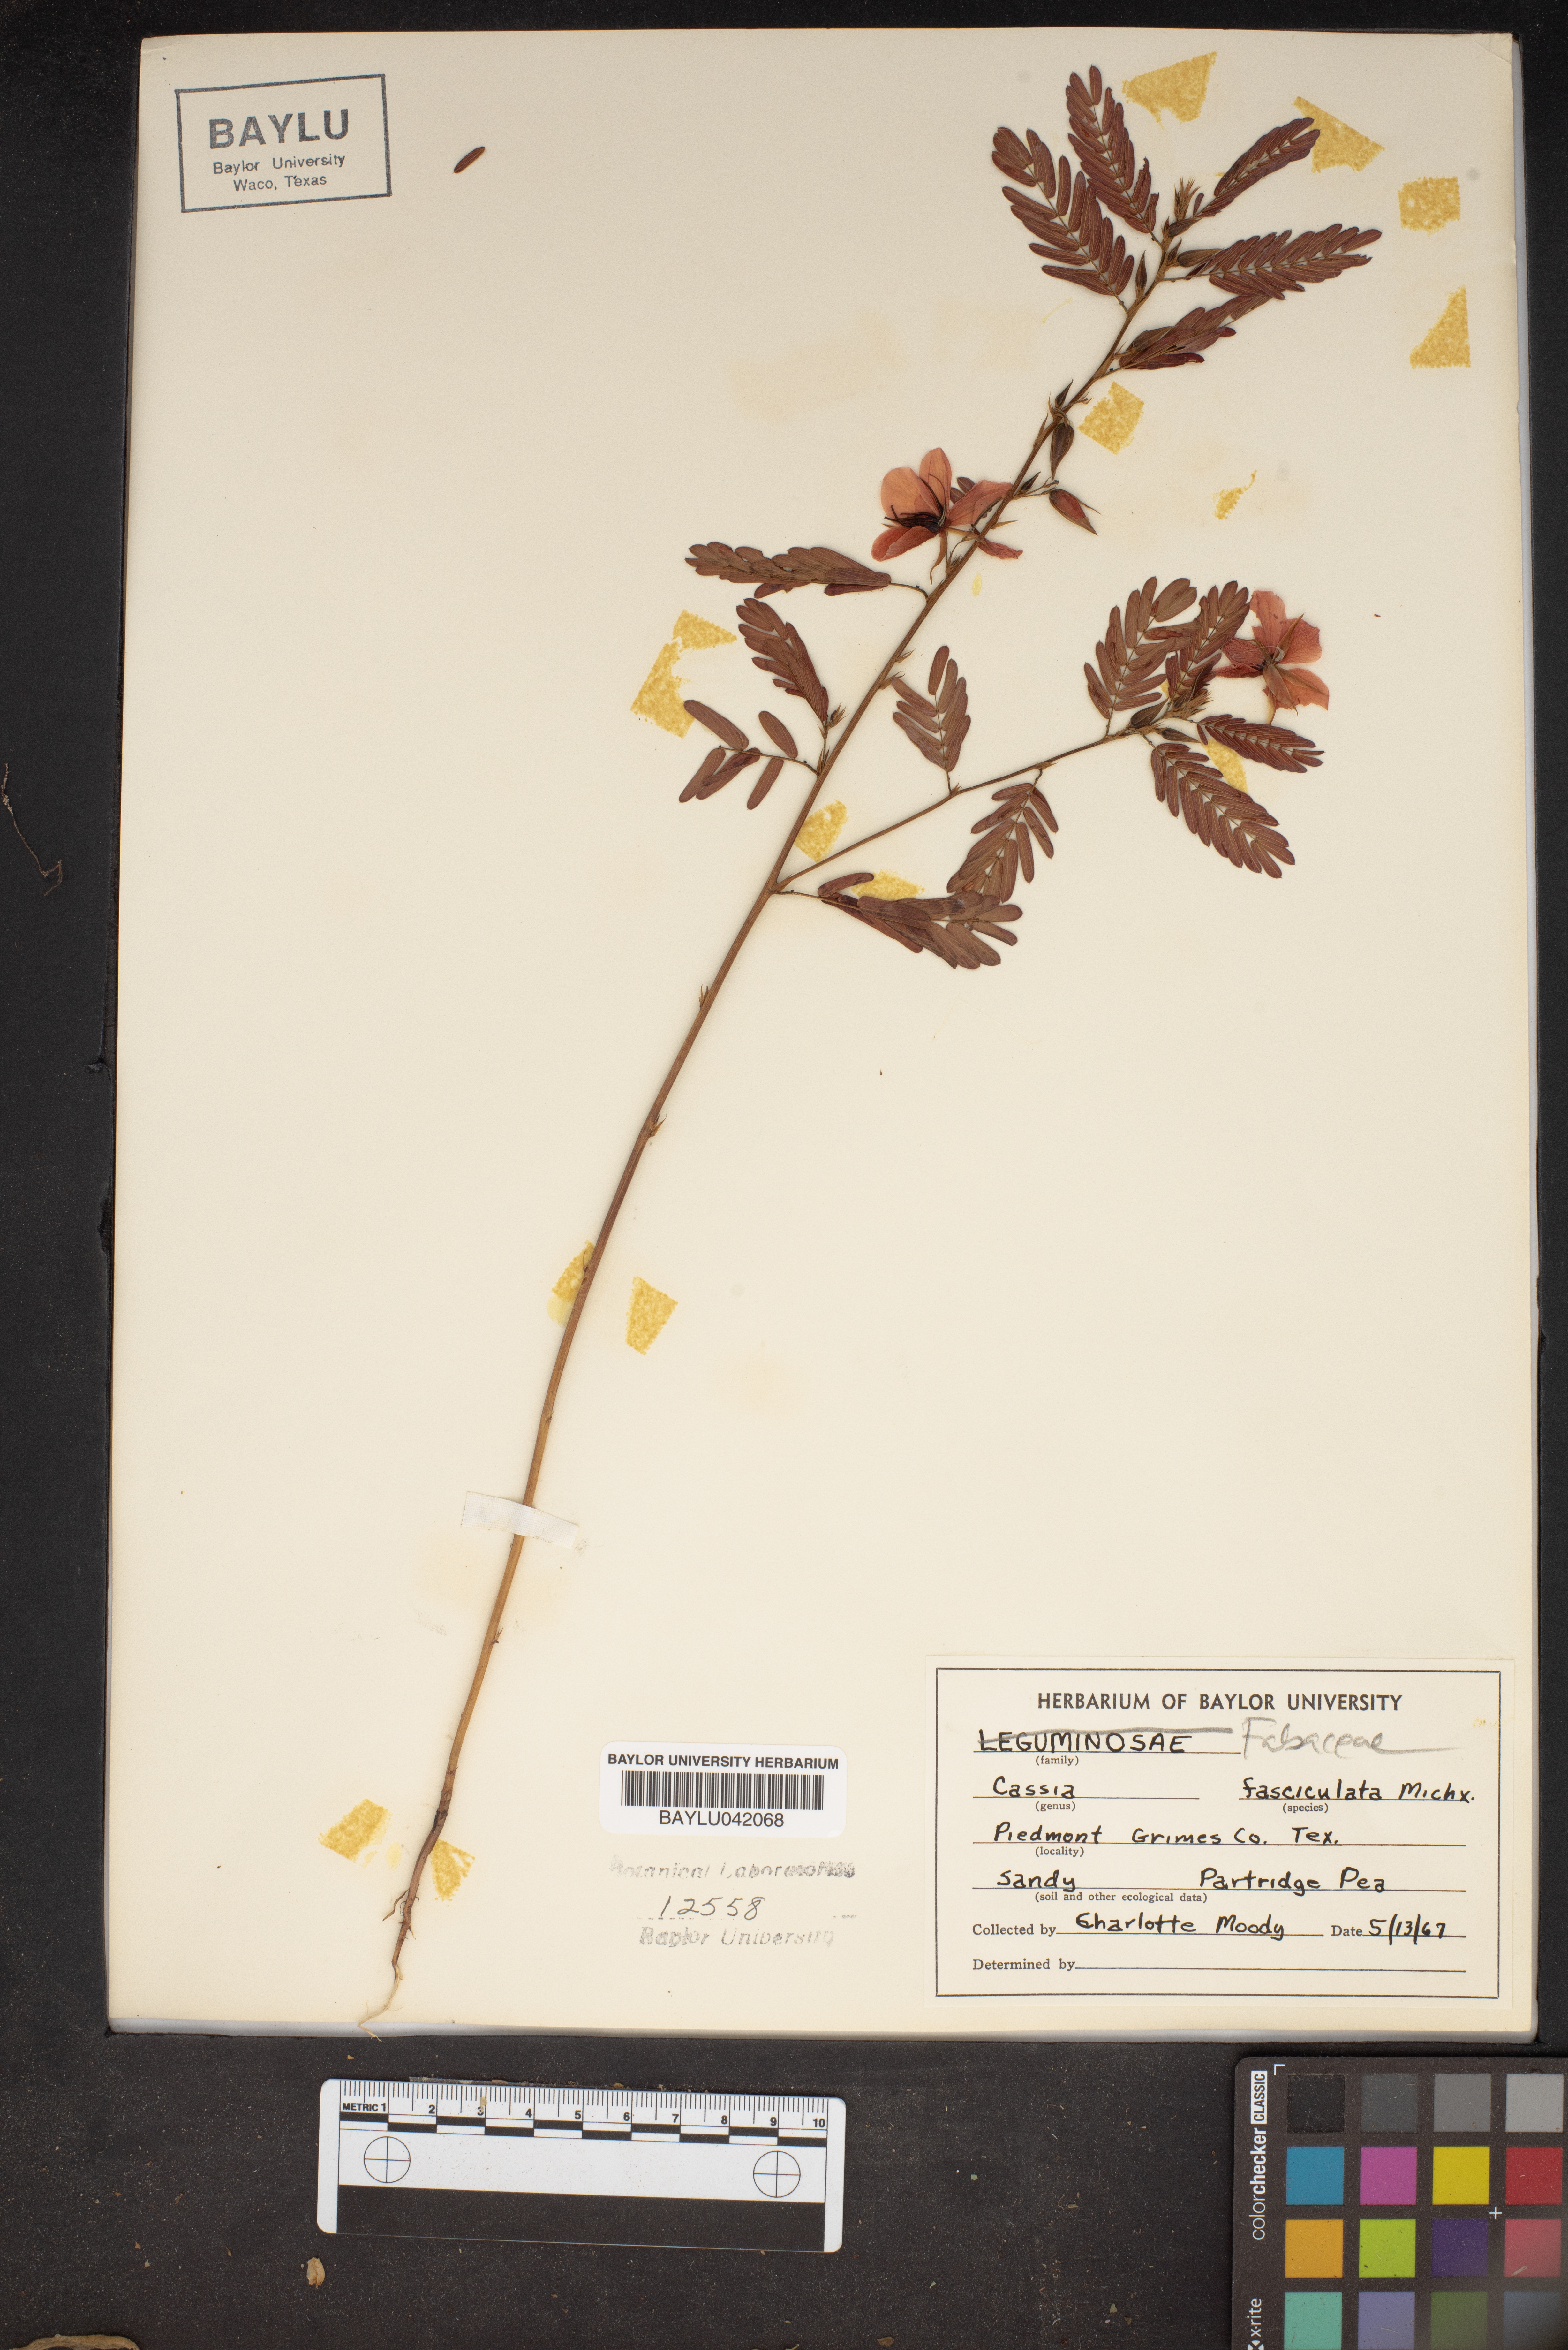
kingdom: Plantae
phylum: Tracheophyta
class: Magnoliopsida
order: Fabales
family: Fabaceae
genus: Chamaecrista
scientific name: Chamaecrista fasciculata
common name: Golden cassia
